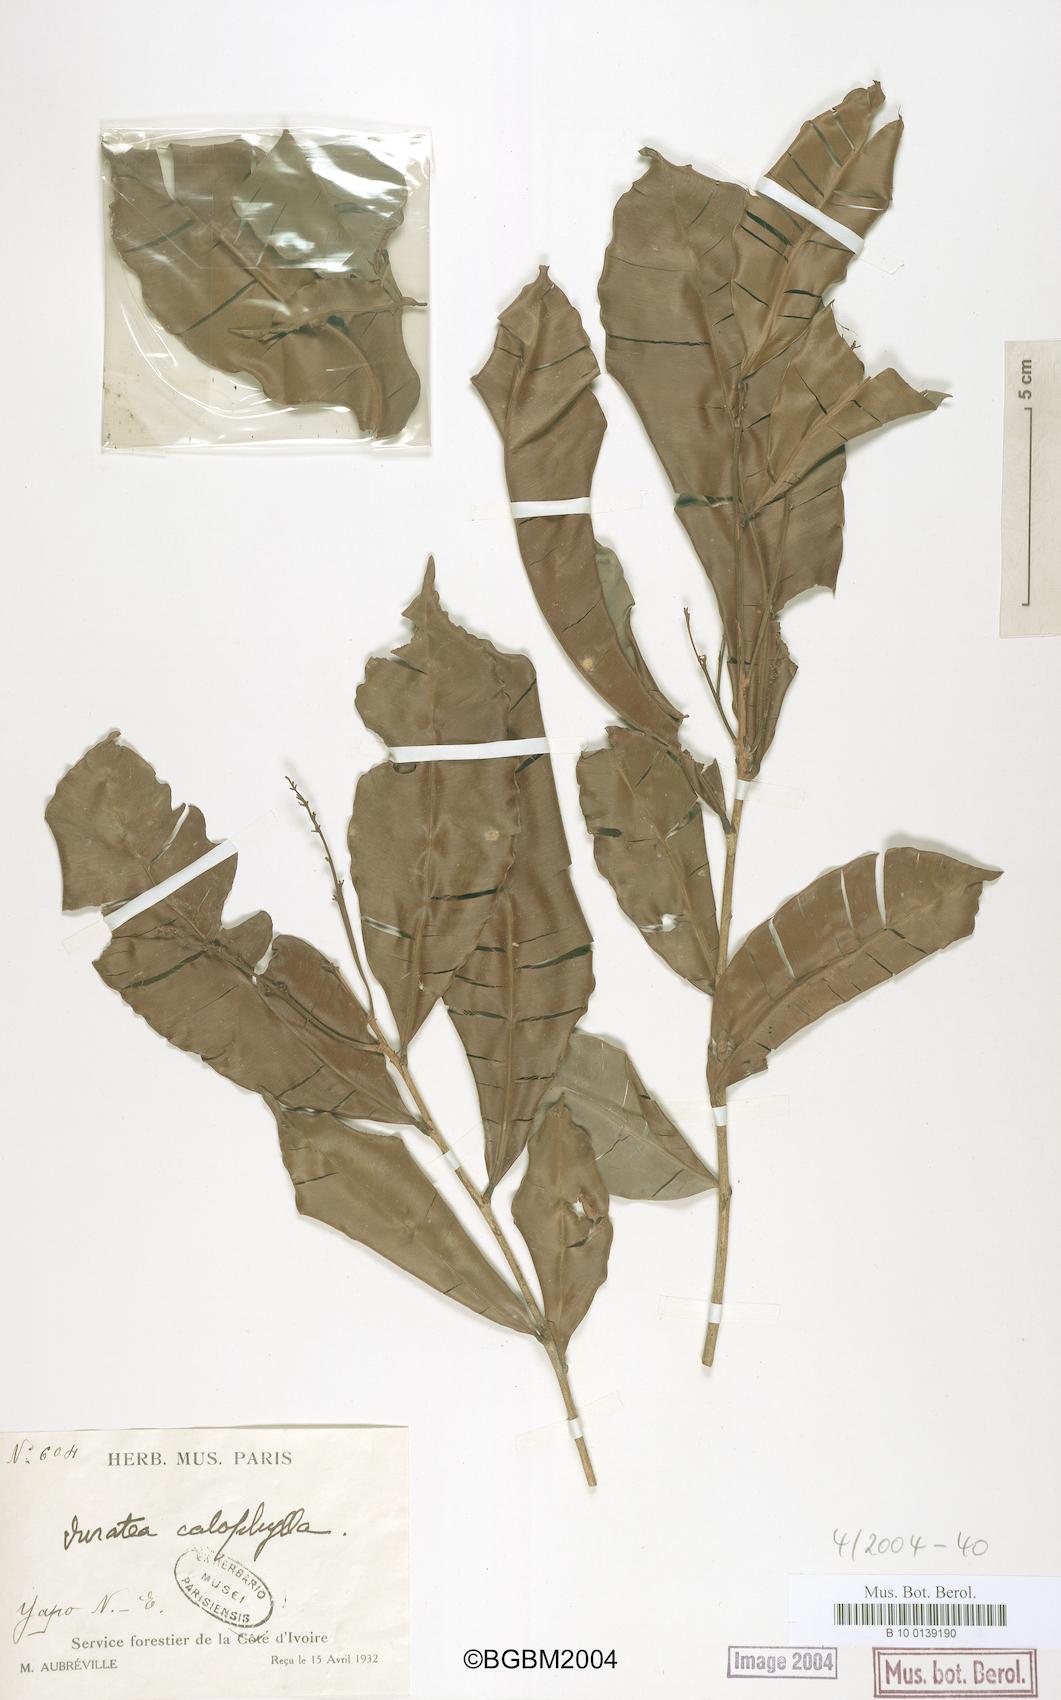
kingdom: Plantae
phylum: Tracheophyta
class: Magnoliopsida
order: Malpighiales
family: Ochnaceae
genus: Rhabdophyllum
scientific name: Rhabdophyllum calophyllum
